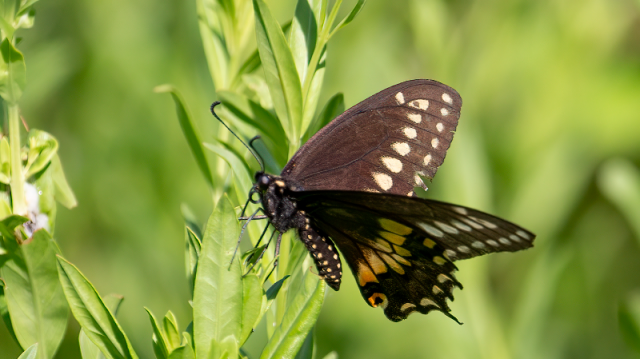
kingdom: Animalia
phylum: Arthropoda
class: Insecta
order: Lepidoptera
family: Papilionidae
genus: Papilio
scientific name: Papilio polyxenes
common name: Black Swallowtail
